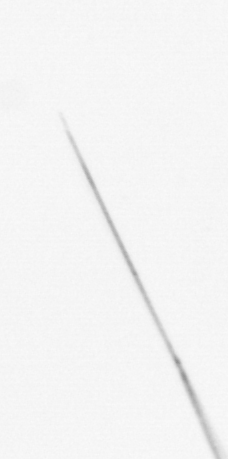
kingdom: Chromista
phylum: Ochrophyta
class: Bacillariophyceae
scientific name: Bacillariophyceae
